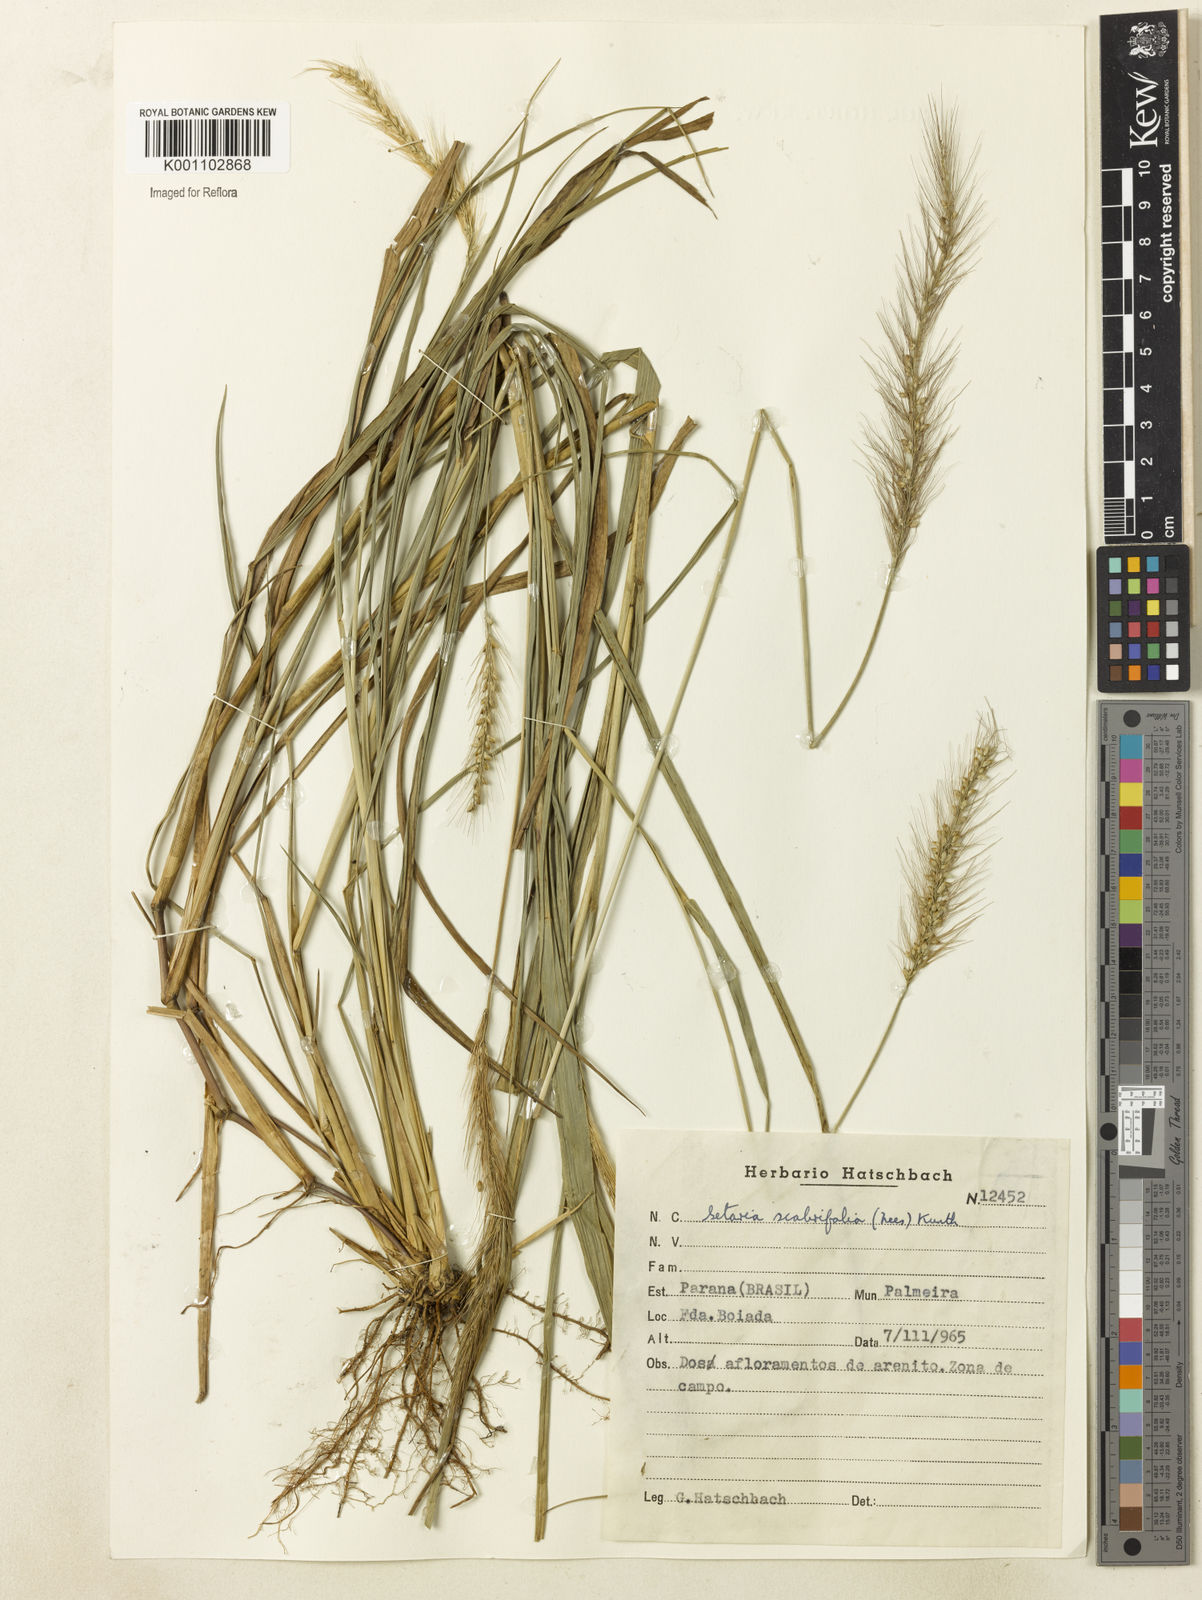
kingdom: Plantae
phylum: Tracheophyta
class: Liliopsida
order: Poales
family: Poaceae
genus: Setaria
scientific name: Setaria scabrifolia
